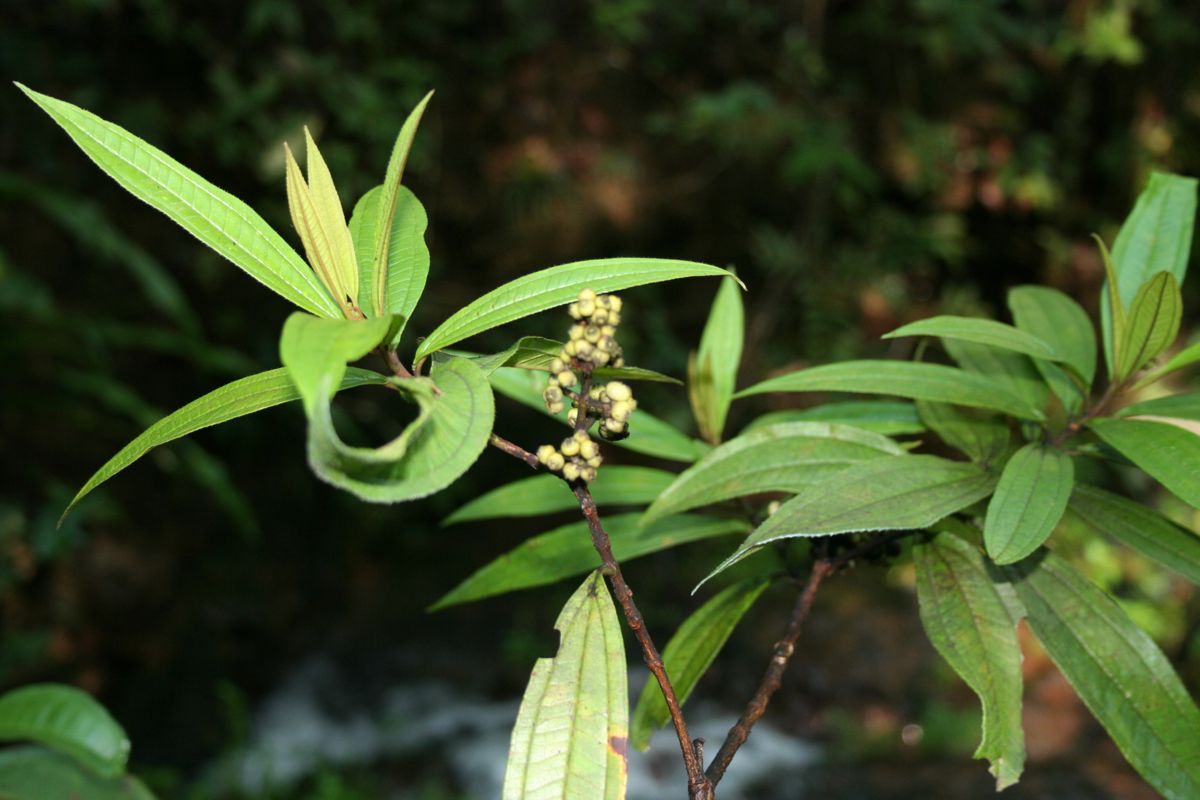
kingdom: Plantae
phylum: Tracheophyta
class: Magnoliopsida
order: Myrtales
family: Melastomataceae
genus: Miconia
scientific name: Miconia schlechtendalii
